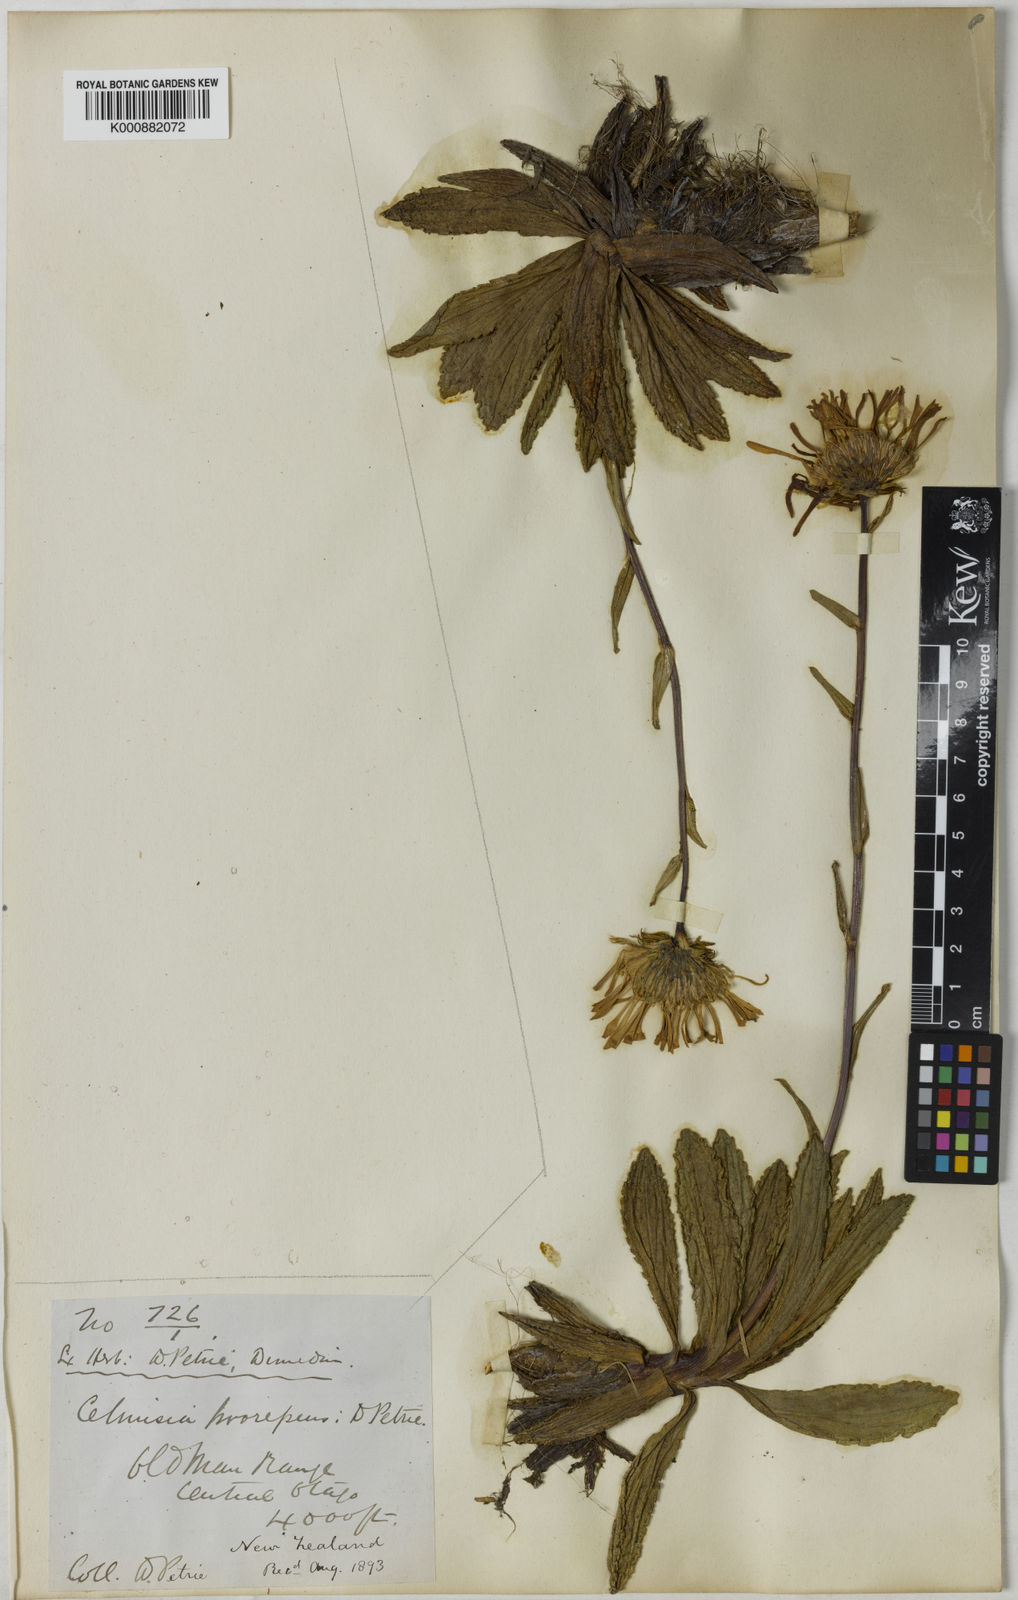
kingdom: Plantae
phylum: Tracheophyta
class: Magnoliopsida
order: Asterales
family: Asteraceae
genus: Celmisia
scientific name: Celmisia prorepens
